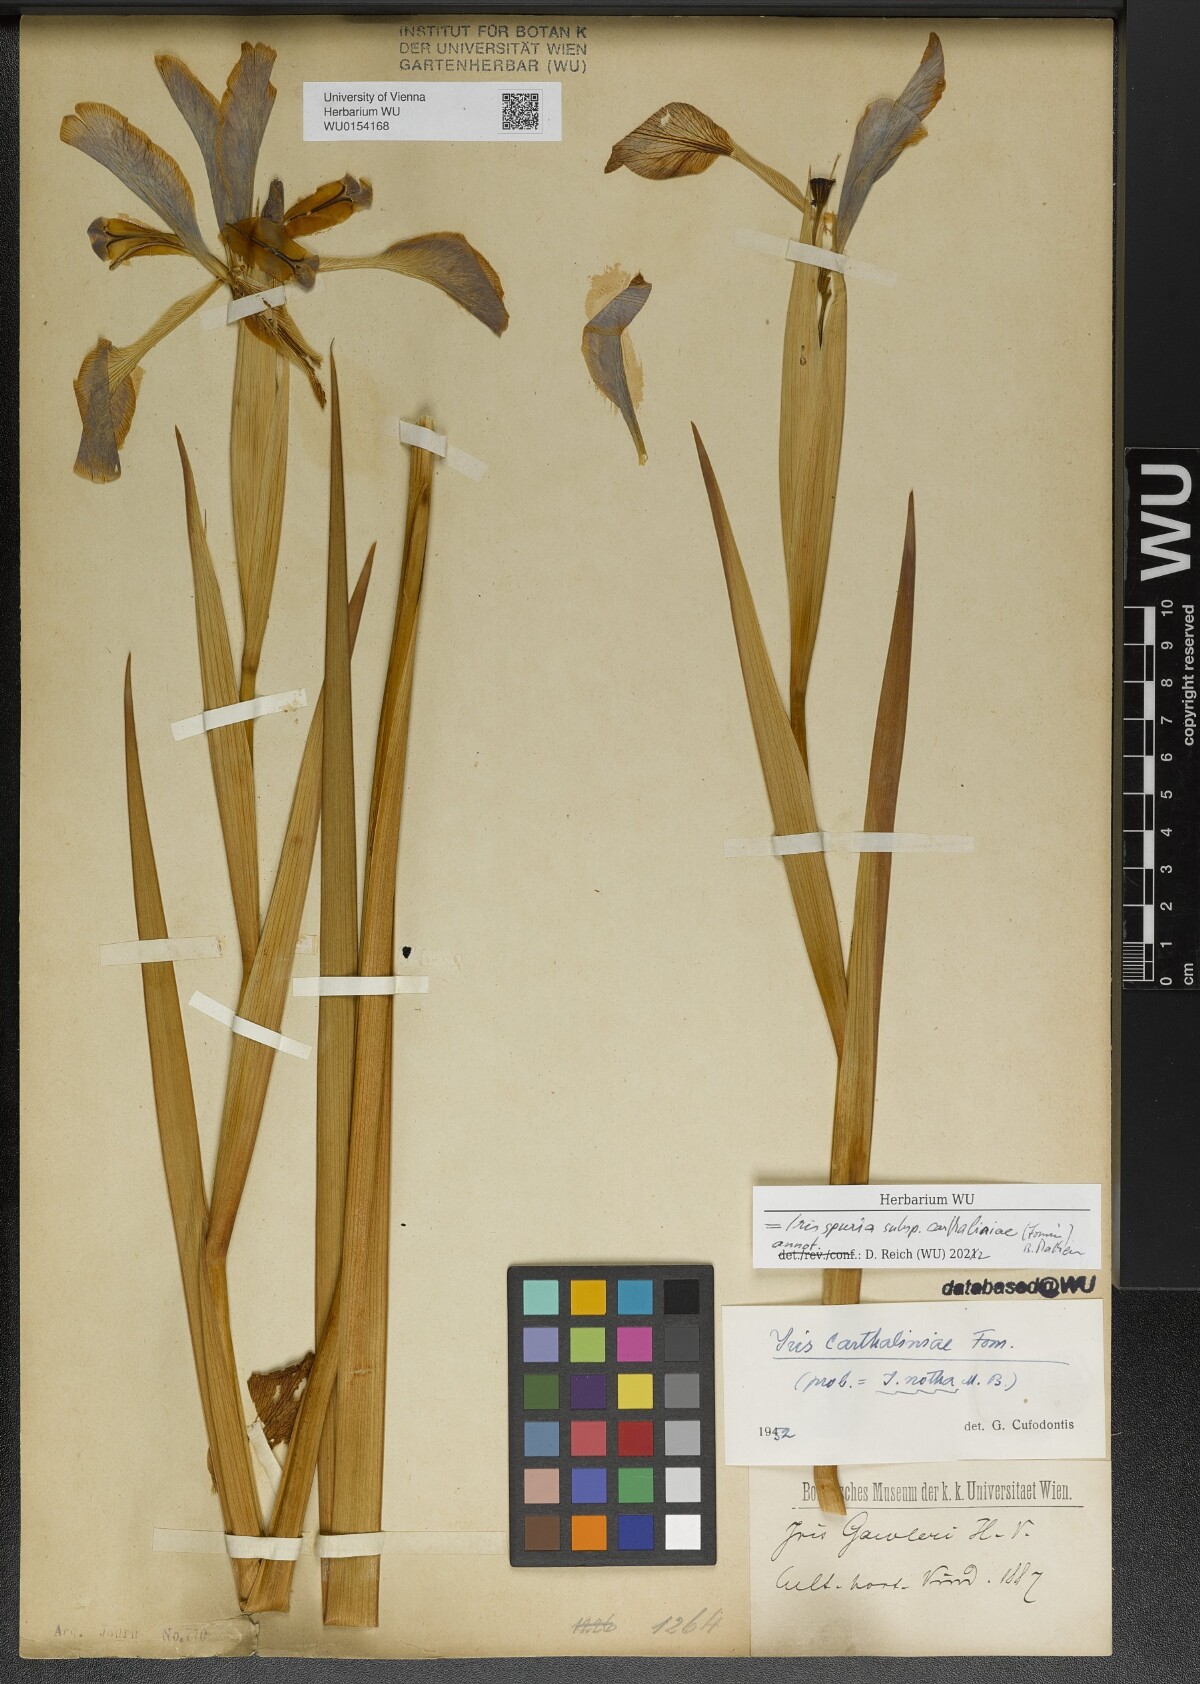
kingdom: Plantae
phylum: Tracheophyta
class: Liliopsida
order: Asparagales
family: Iridaceae
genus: Iris
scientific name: Iris spuria
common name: Blue iris
